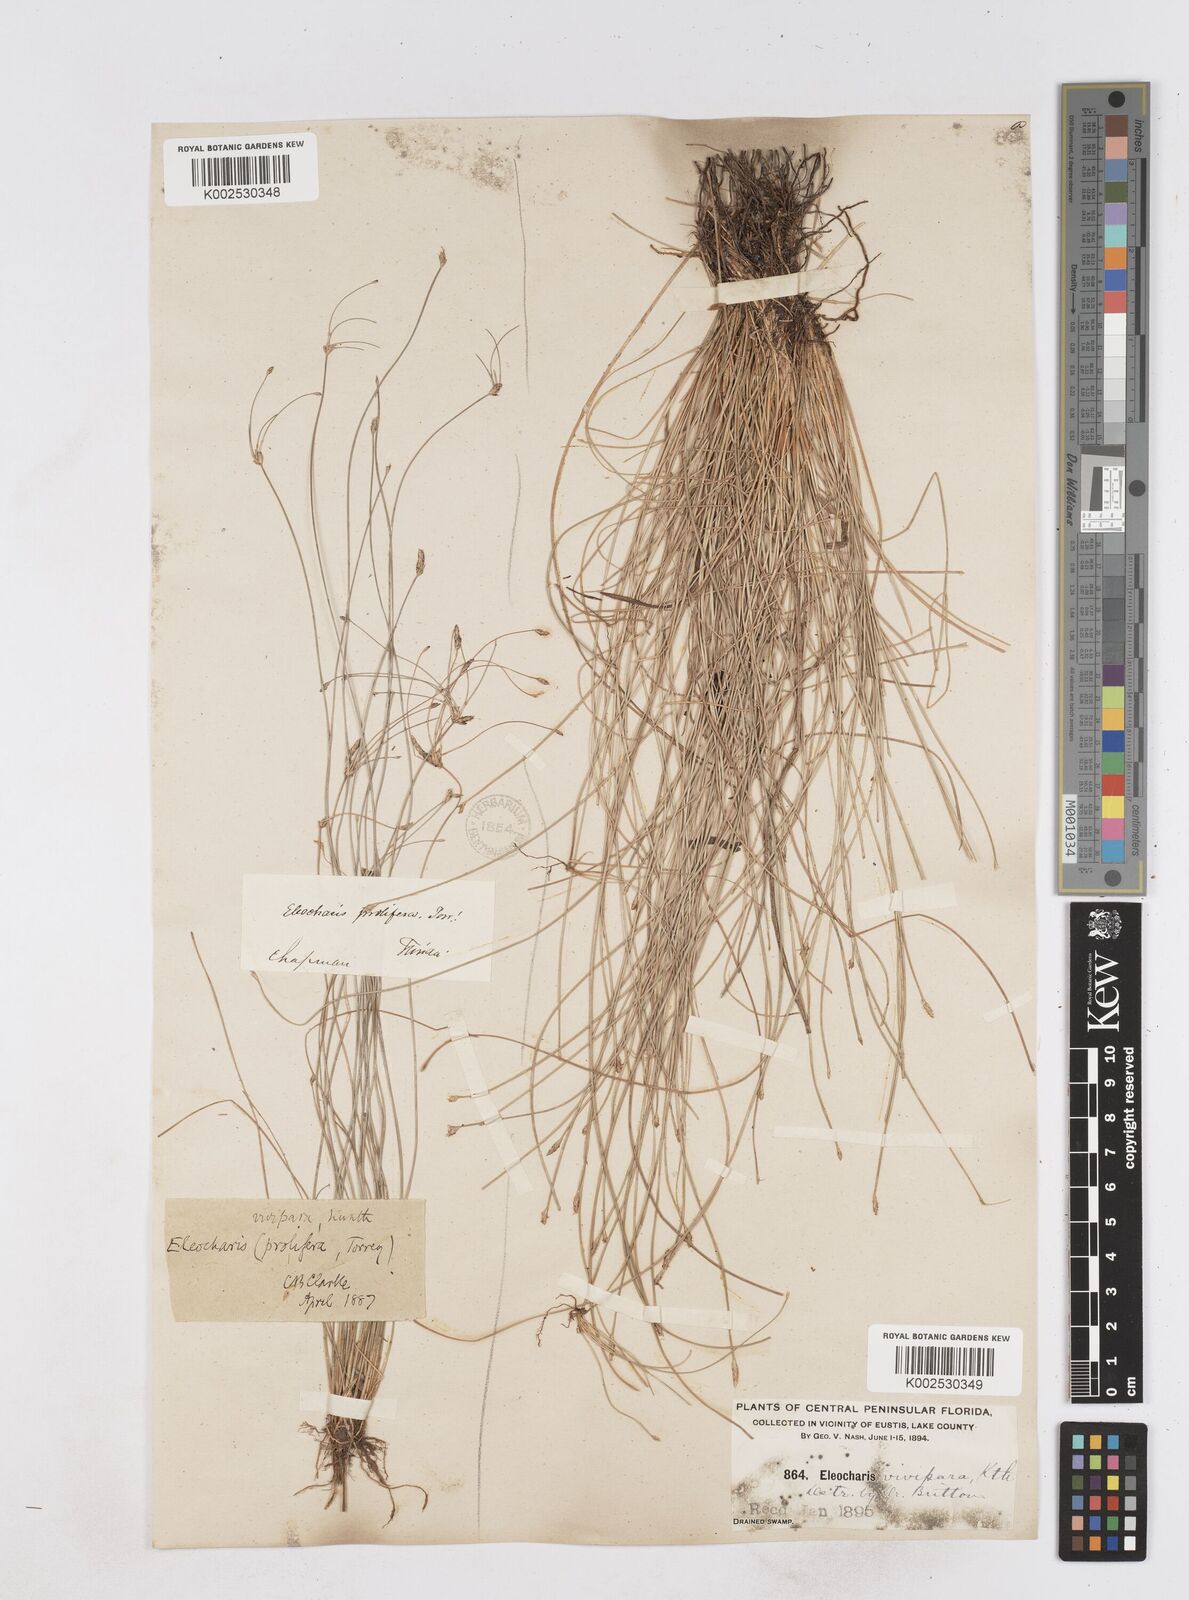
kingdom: Plantae
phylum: Tracheophyta
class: Liliopsida
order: Poales
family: Cyperaceae
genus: Eleocharis
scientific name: Eleocharis
